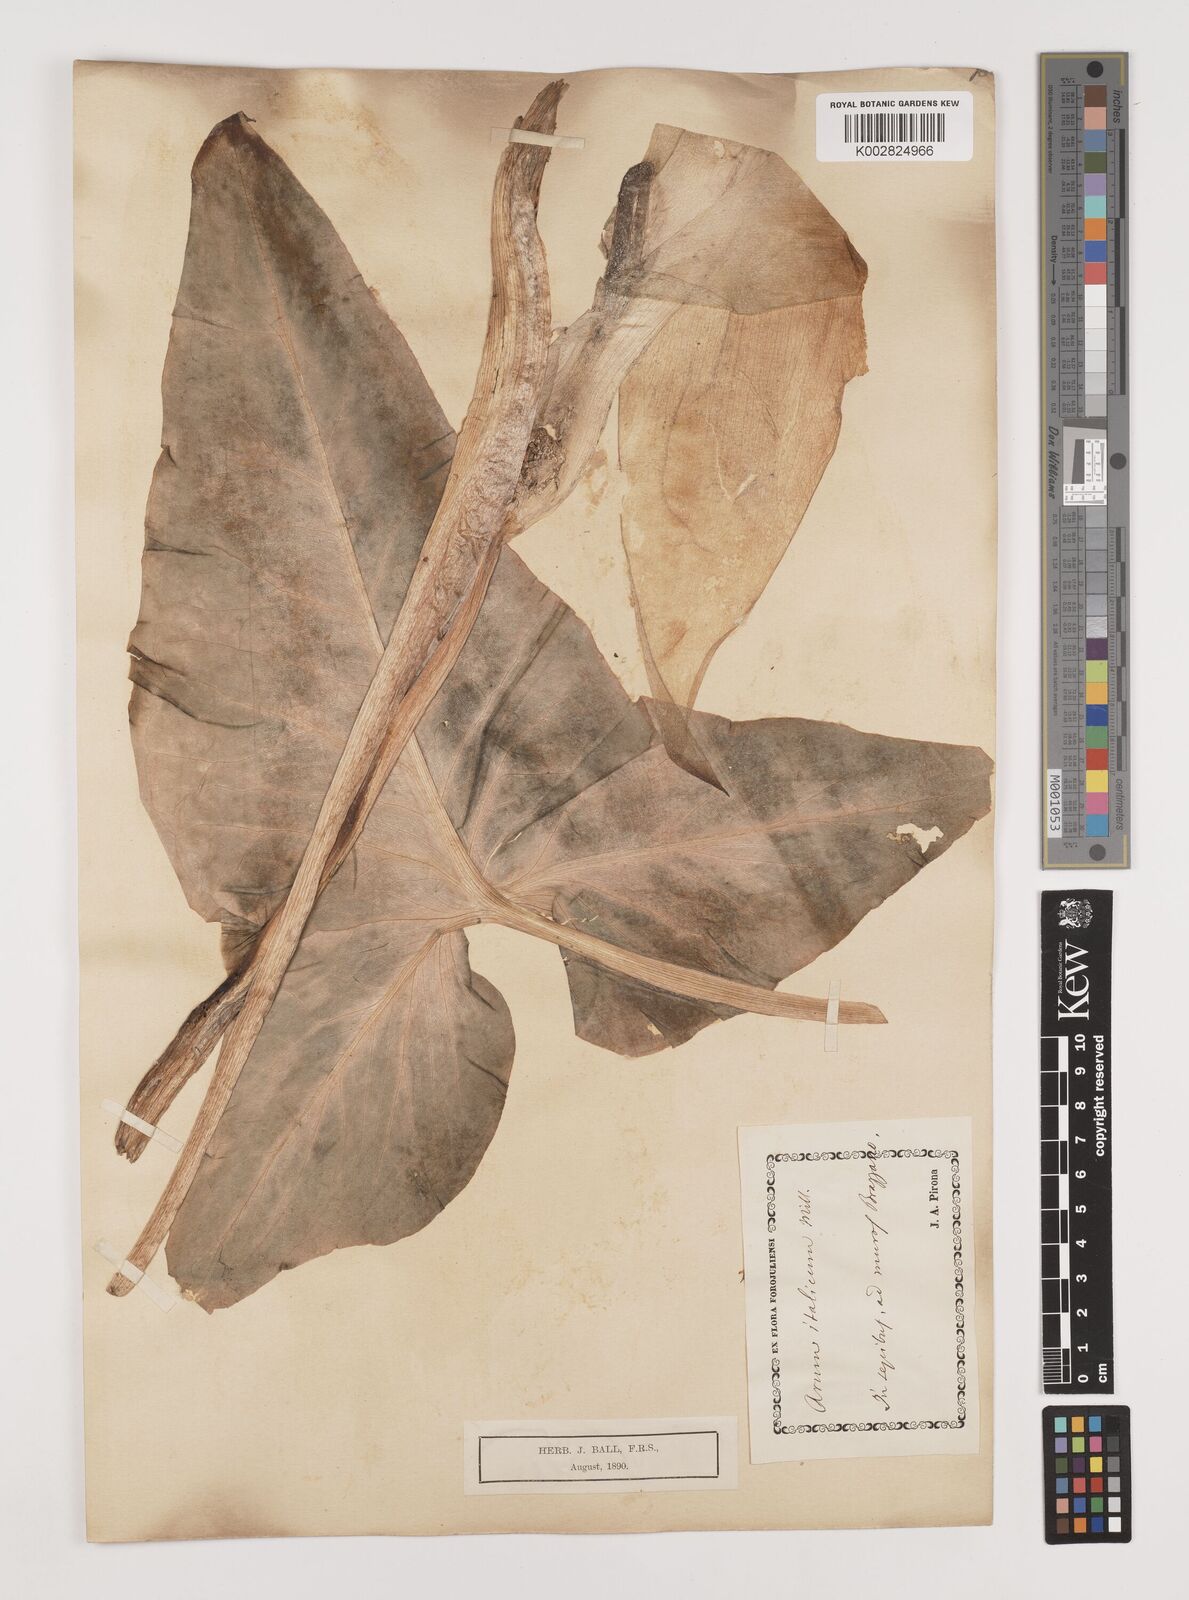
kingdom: Plantae
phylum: Tracheophyta
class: Liliopsida
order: Alismatales
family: Araceae
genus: Arum
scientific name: Arum italicum
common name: Italian lords-and-ladies
